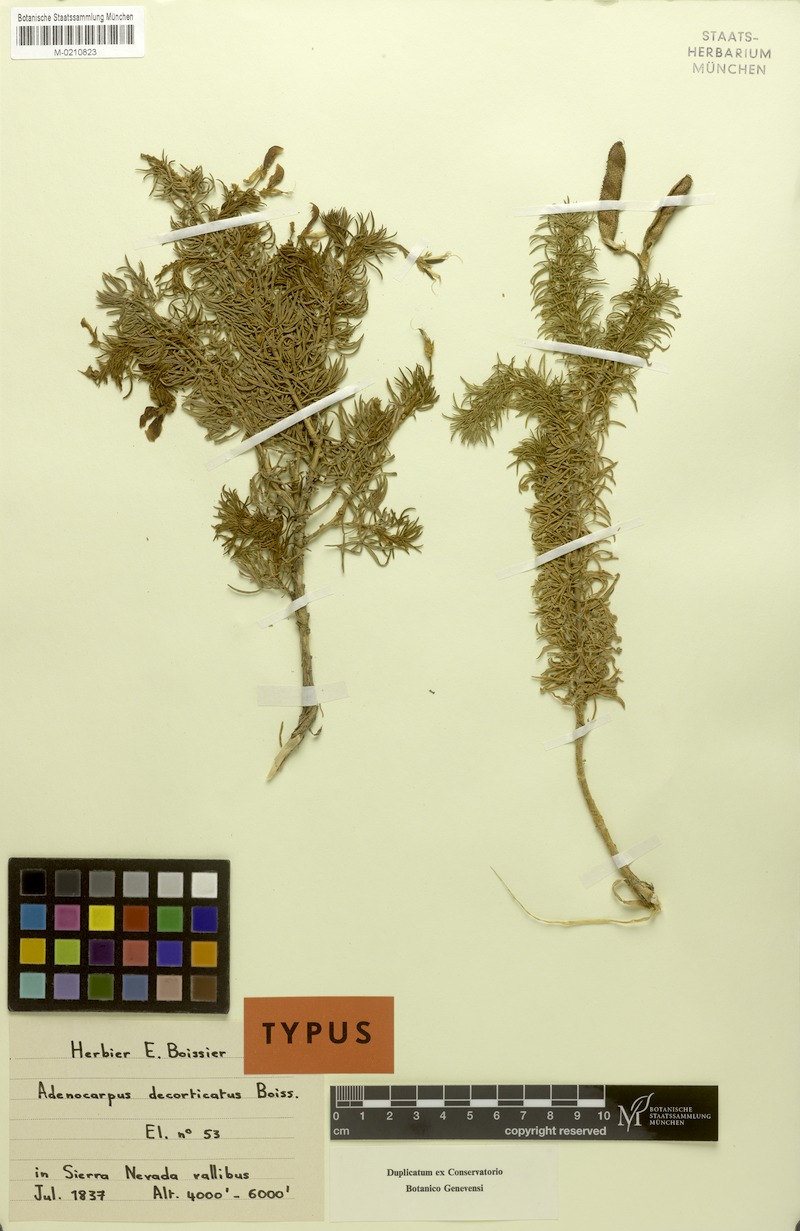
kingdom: Plantae
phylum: Tracheophyta
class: Magnoliopsida
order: Fabales
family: Fabaceae
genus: Adenocarpus
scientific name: Adenocarpus decorticans
